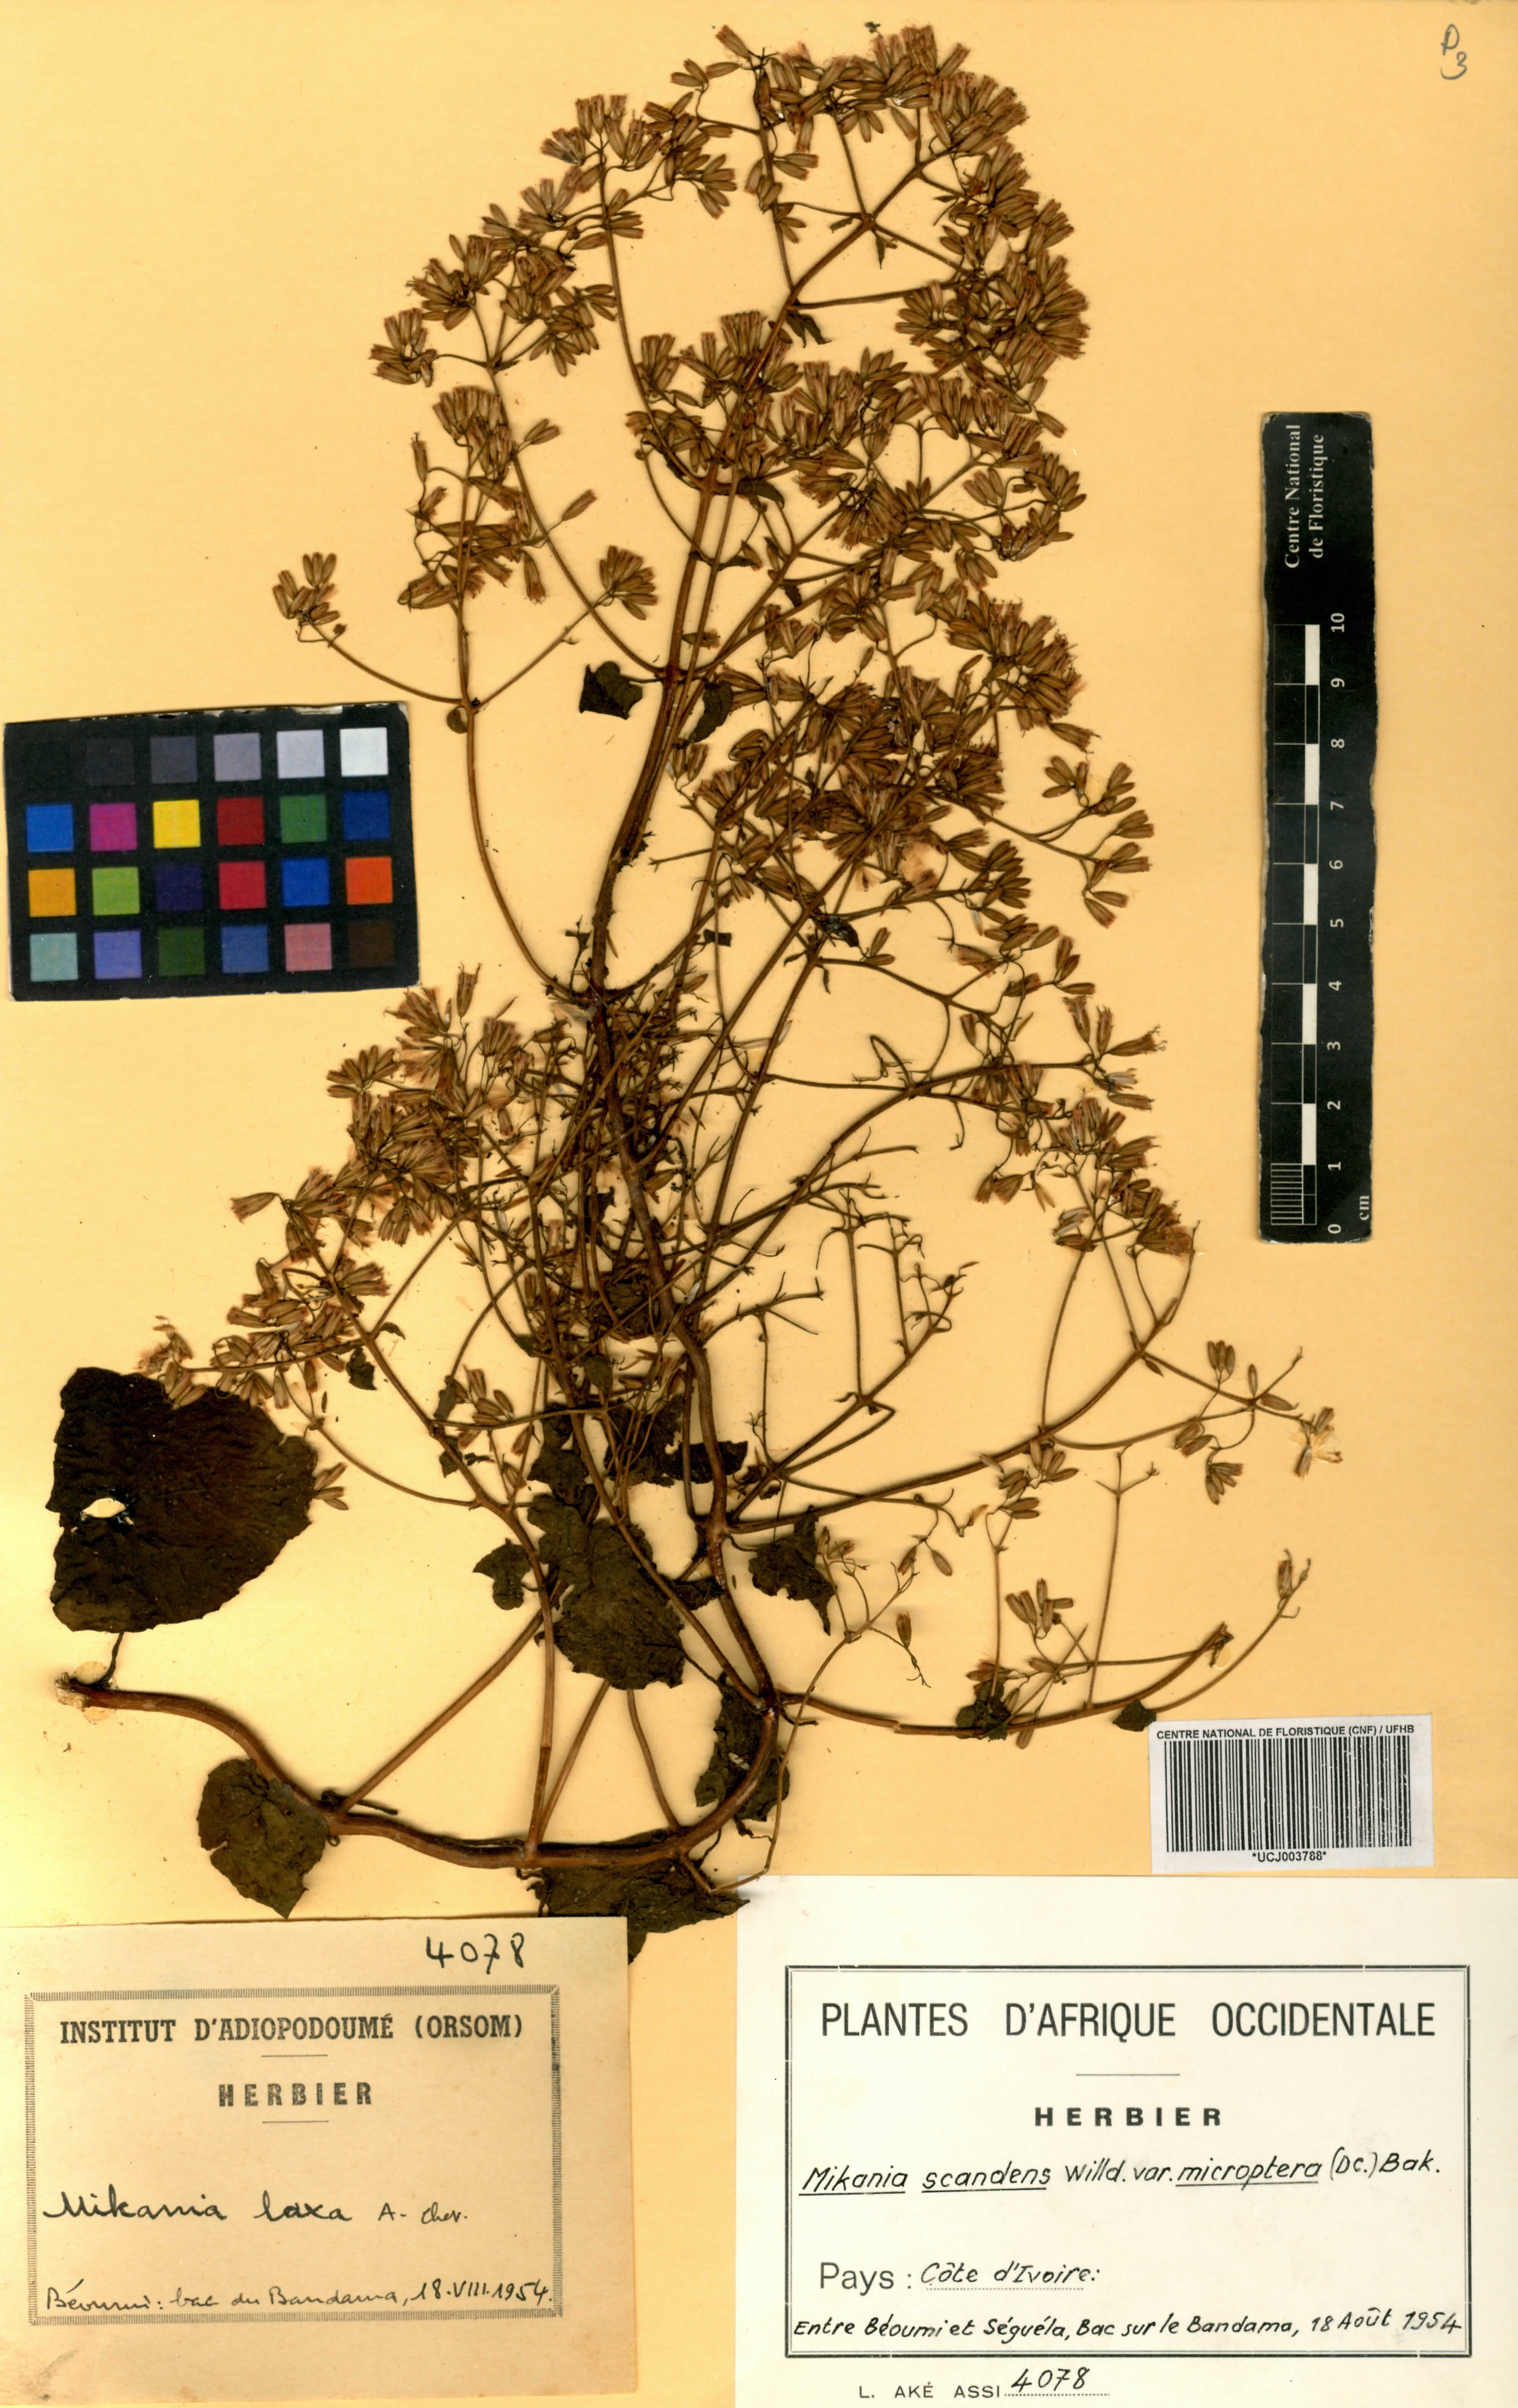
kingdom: Plantae
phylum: Tracheophyta
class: Magnoliopsida
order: Asterales
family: Asteraceae
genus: Mikania
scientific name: Mikania scandens
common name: Climbing hempvine
